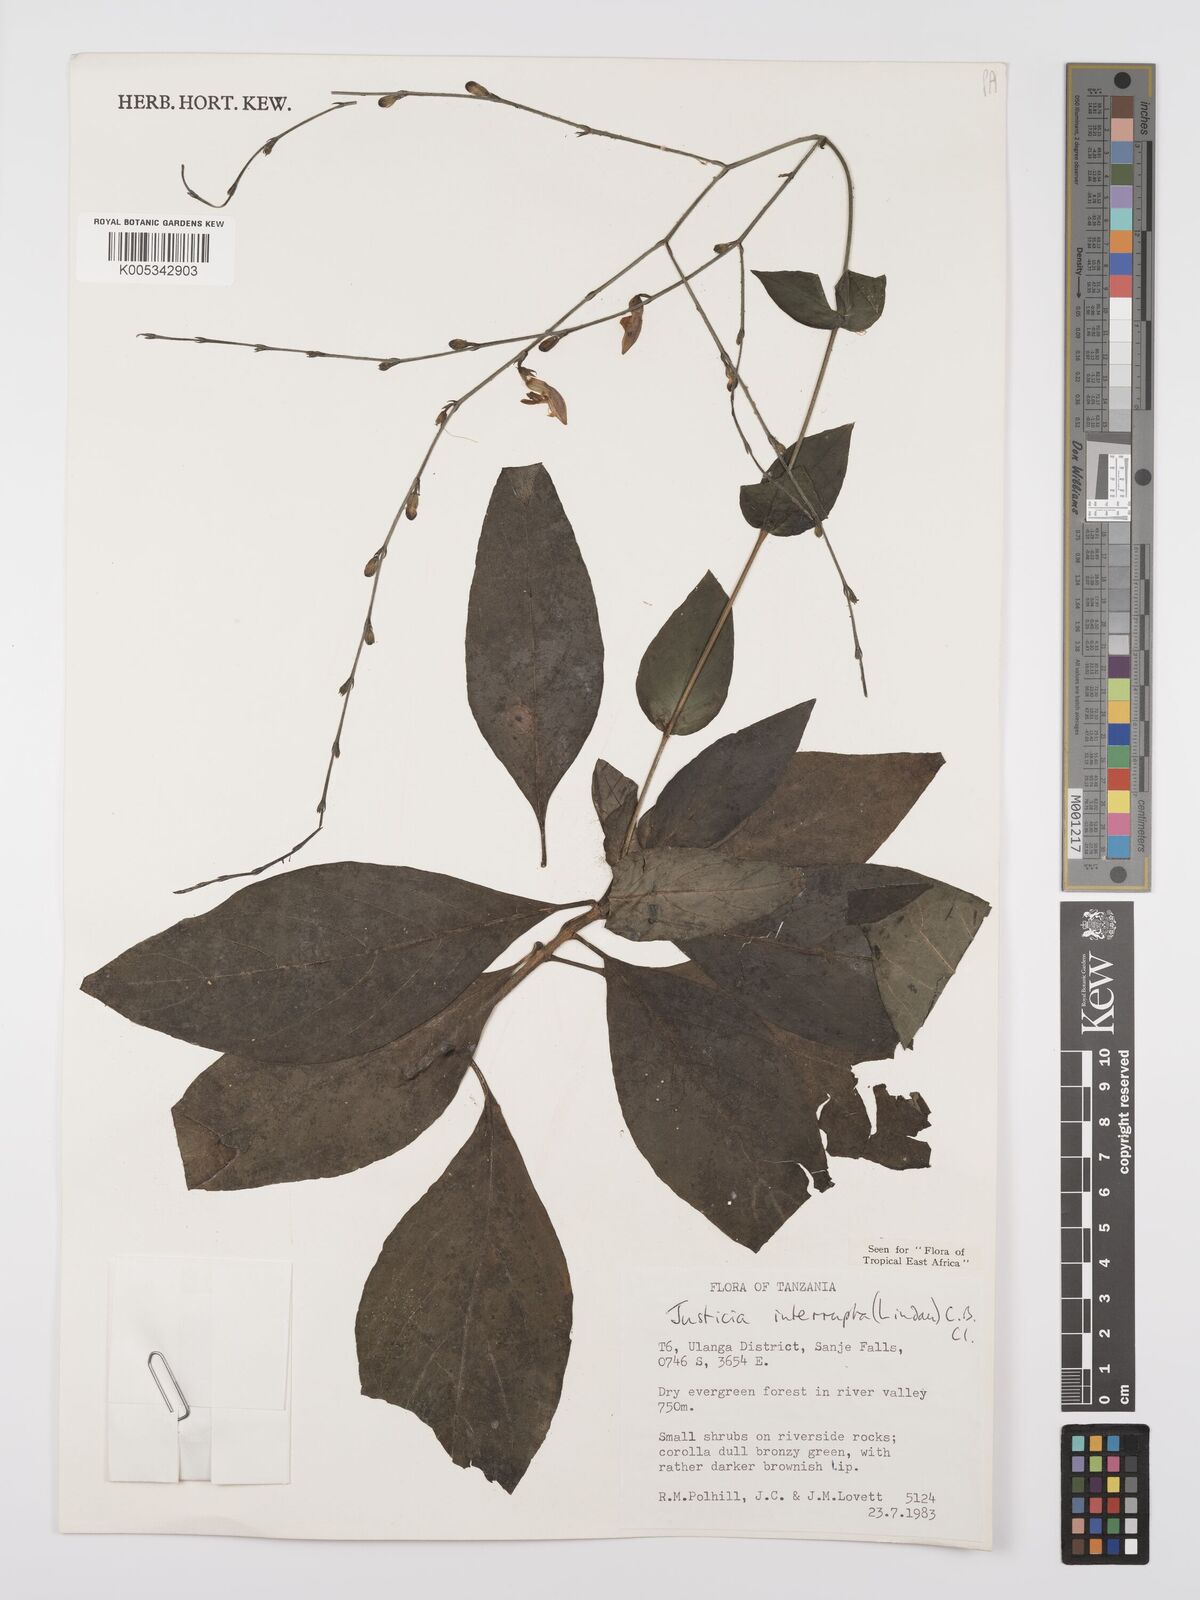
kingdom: Plantae
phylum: Tracheophyta
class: Magnoliopsida
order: Lamiales
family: Acanthaceae
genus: Justicia
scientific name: Justicia plectranthoides
